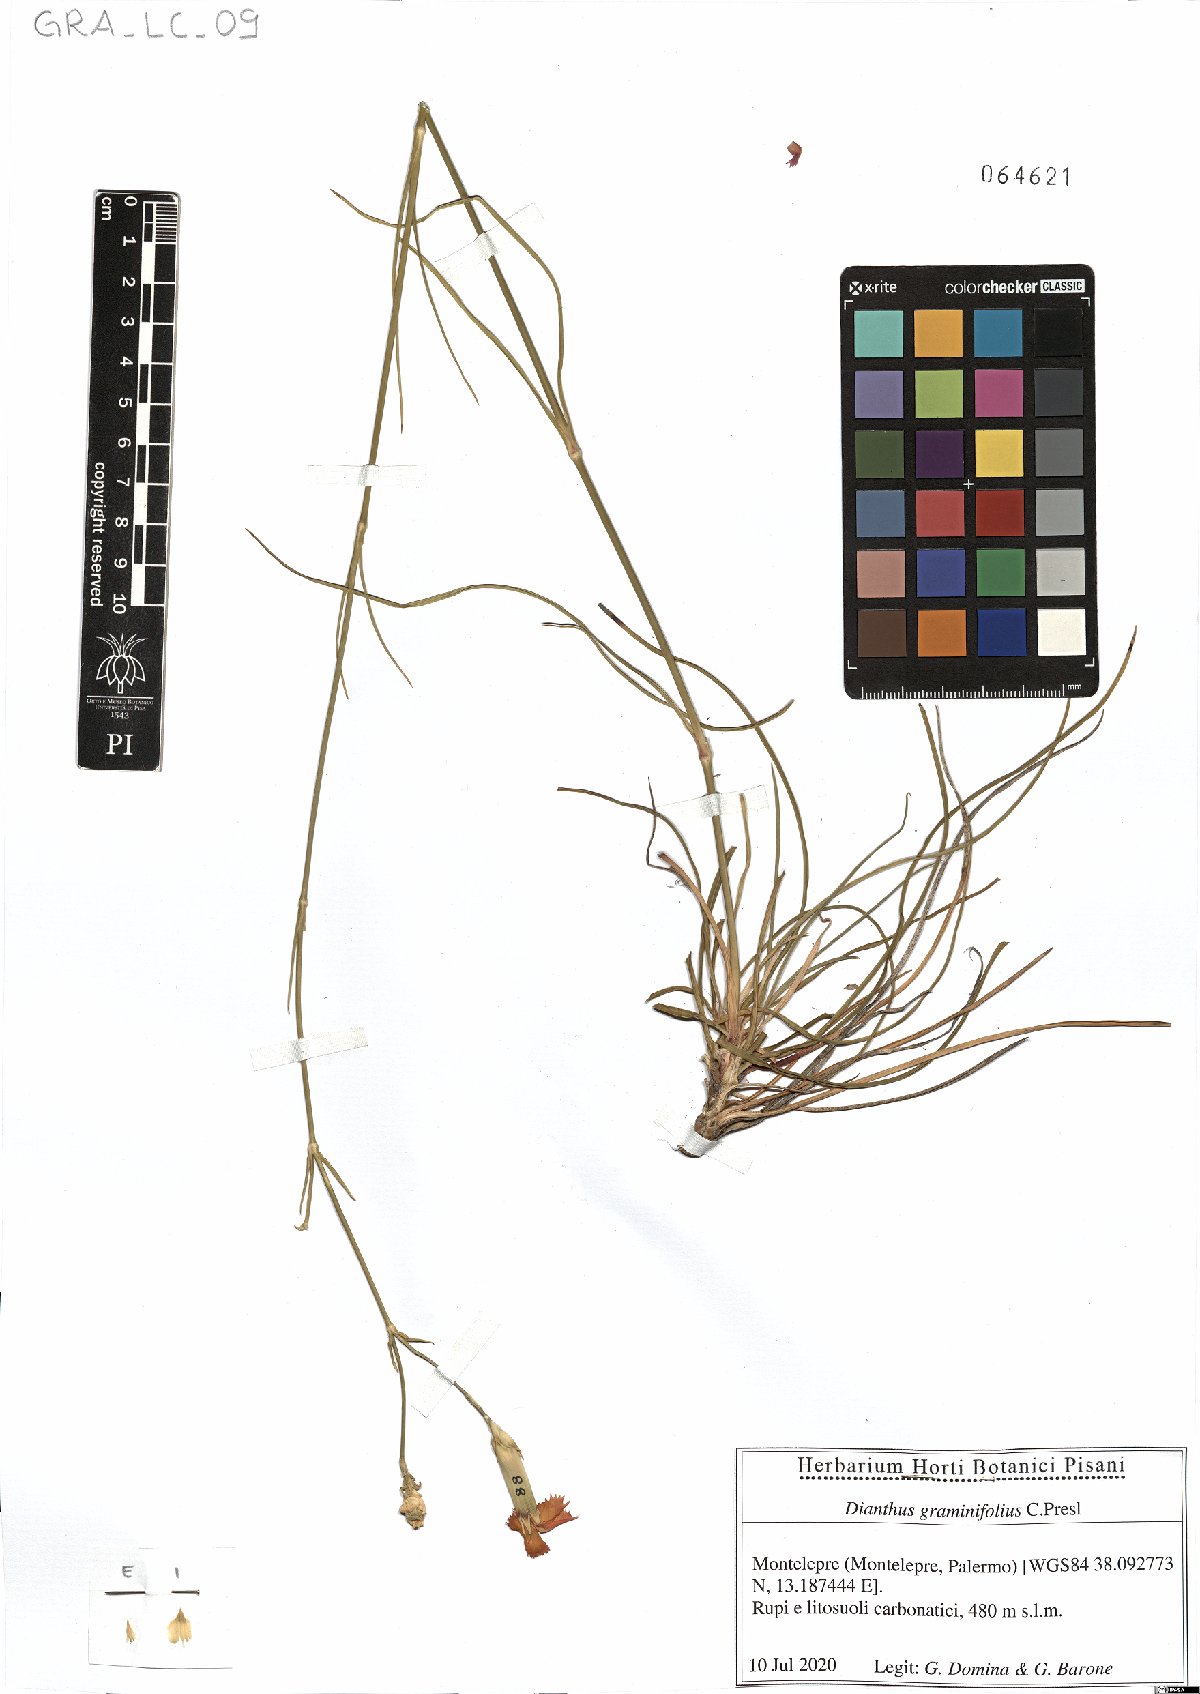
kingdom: Plantae
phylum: Tracheophyta
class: Magnoliopsida
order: Caryophyllales
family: Caryophyllaceae
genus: Dianthus
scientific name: Dianthus graminifolius
